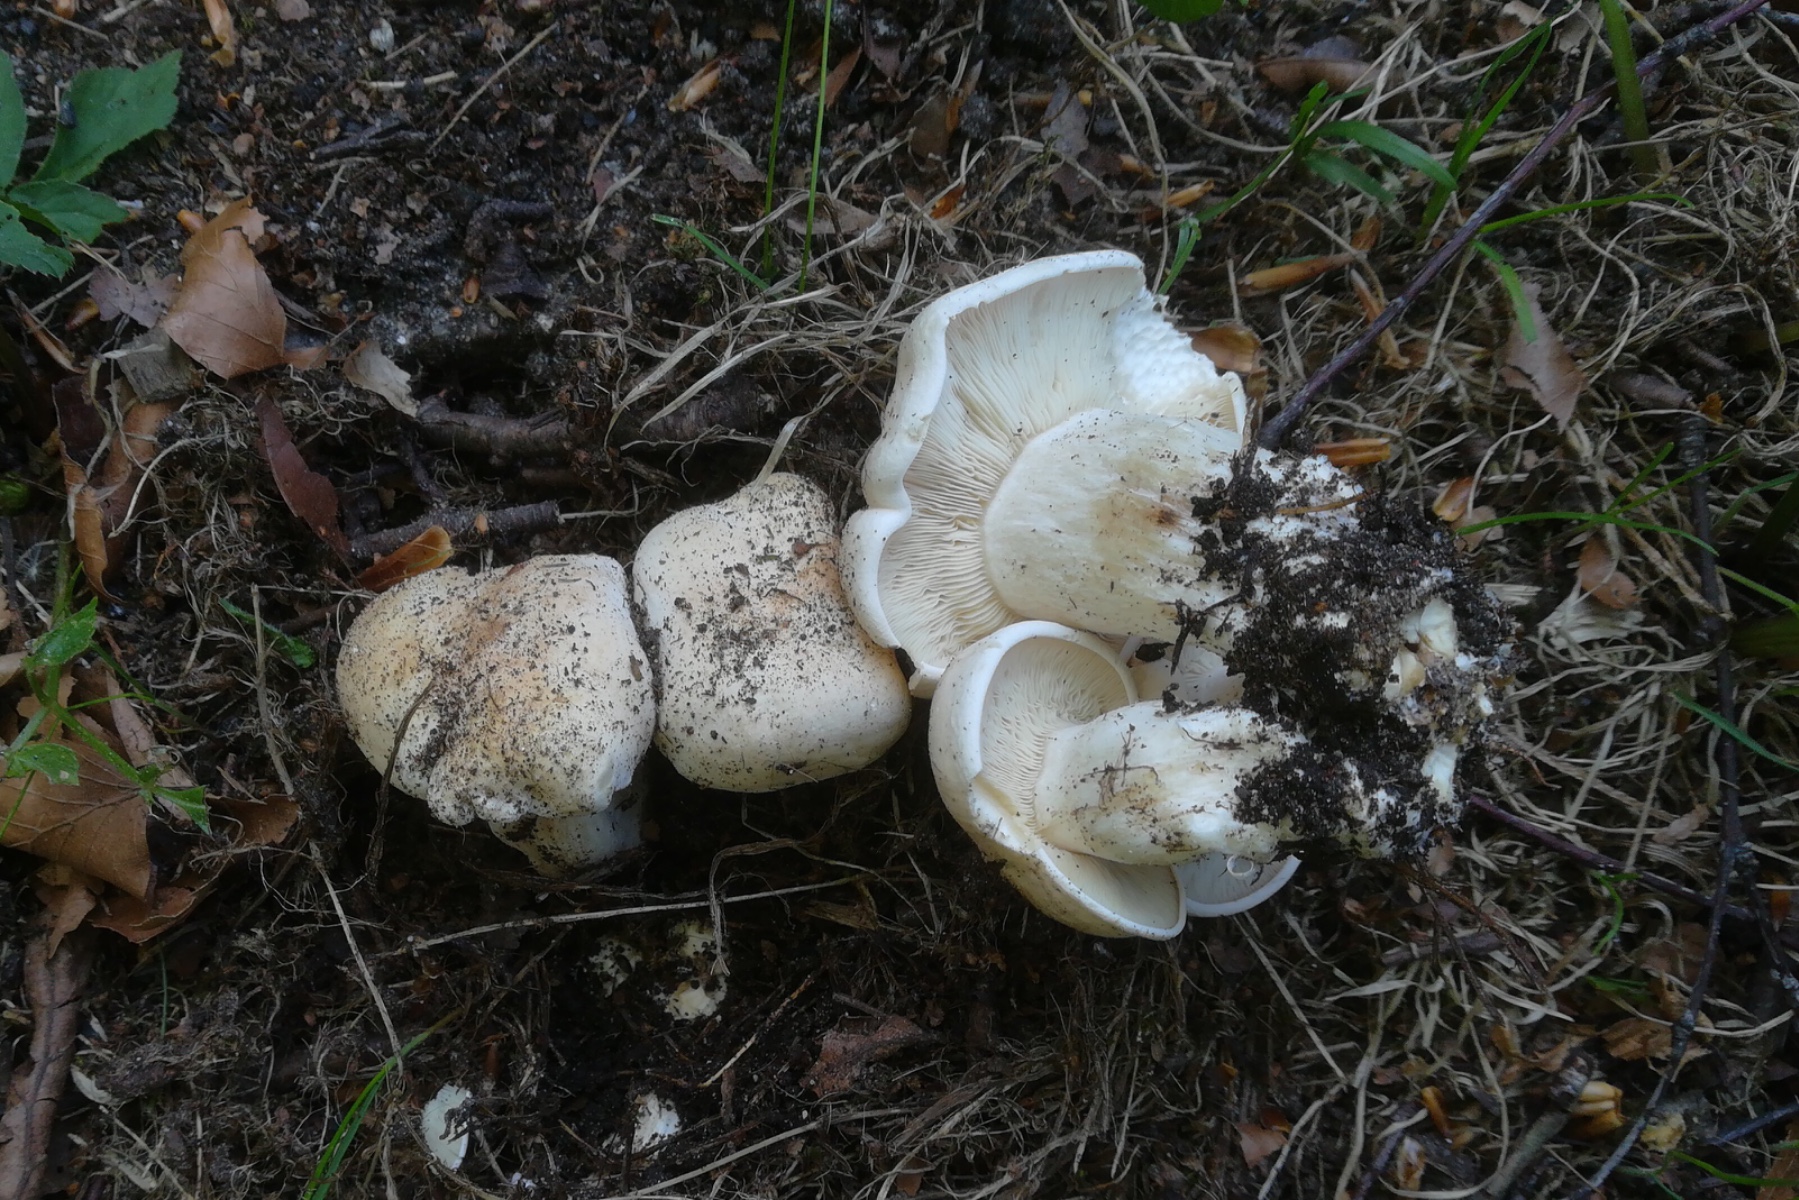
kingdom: Fungi
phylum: Basidiomycota
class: Agaricomycetes
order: Agaricales
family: Lyophyllaceae
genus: Calocybe
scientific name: Calocybe gambosa
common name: vårmusseron
